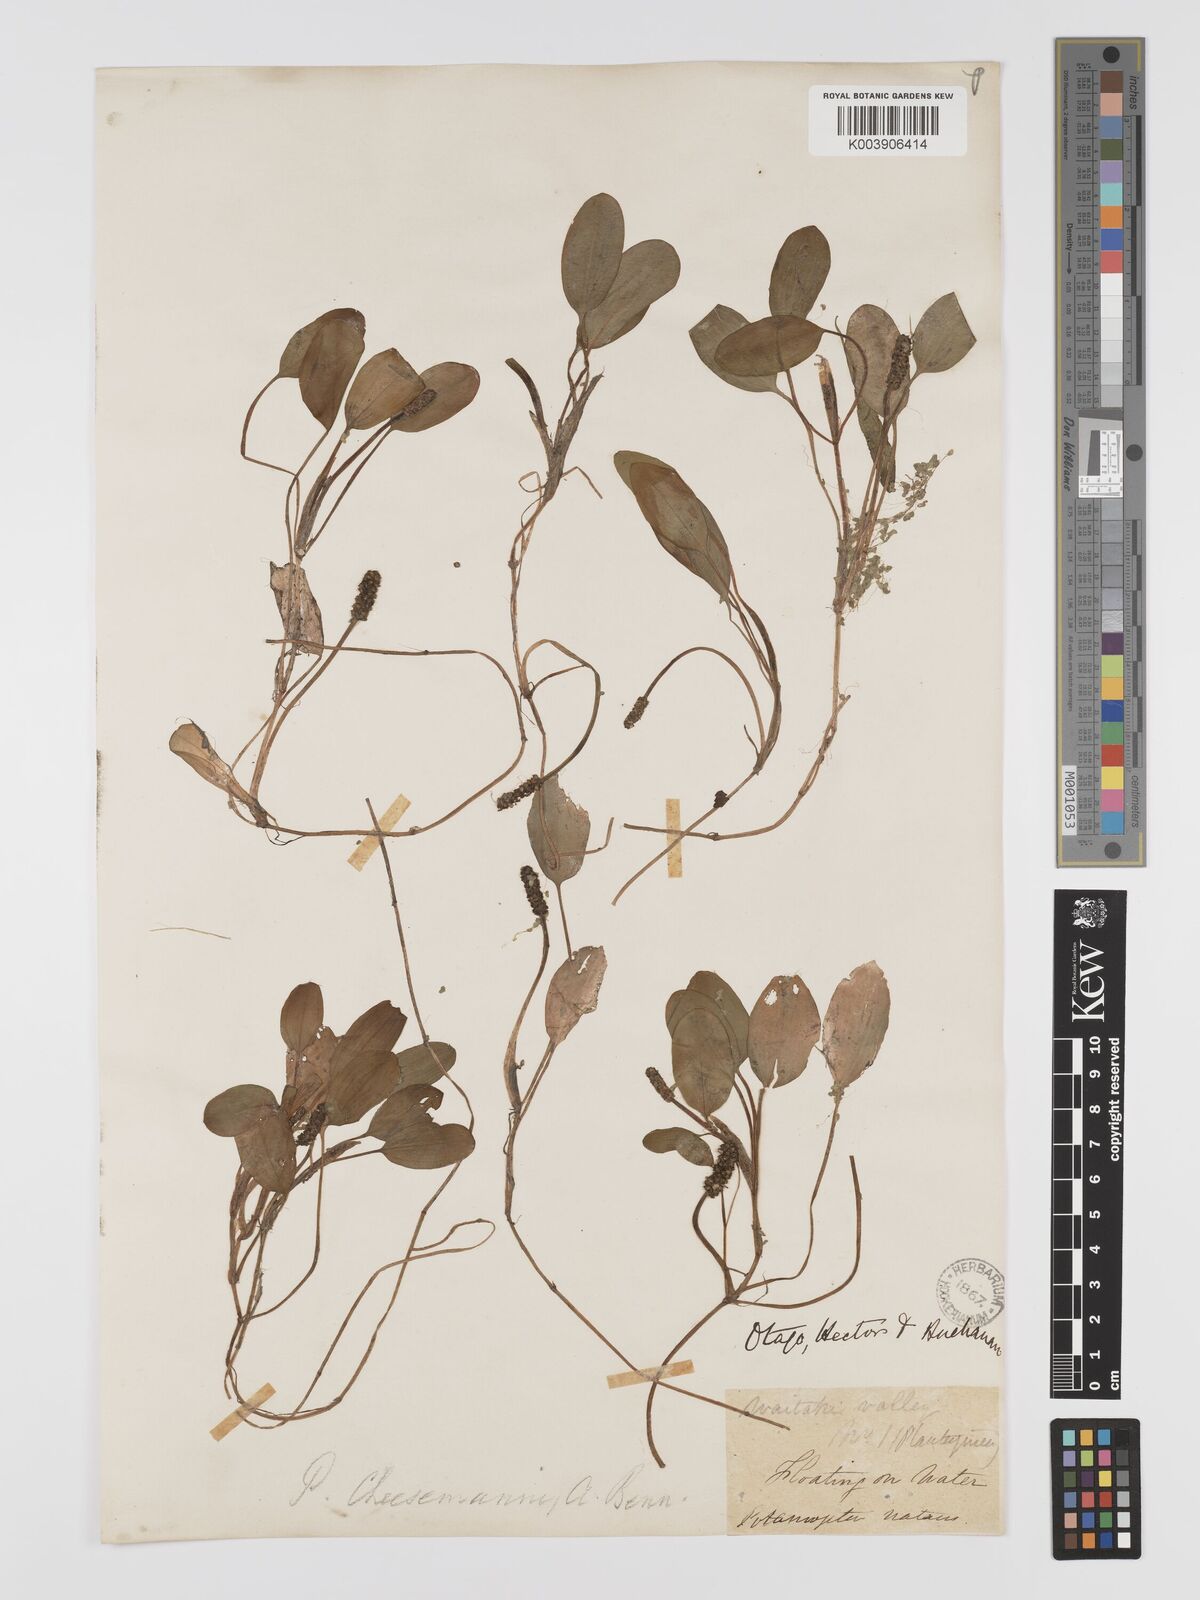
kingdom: Plantae
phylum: Tracheophyta
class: Liliopsida
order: Alismatales
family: Potamogetonaceae
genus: Potamogeton
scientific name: Potamogeton cheesemanii
